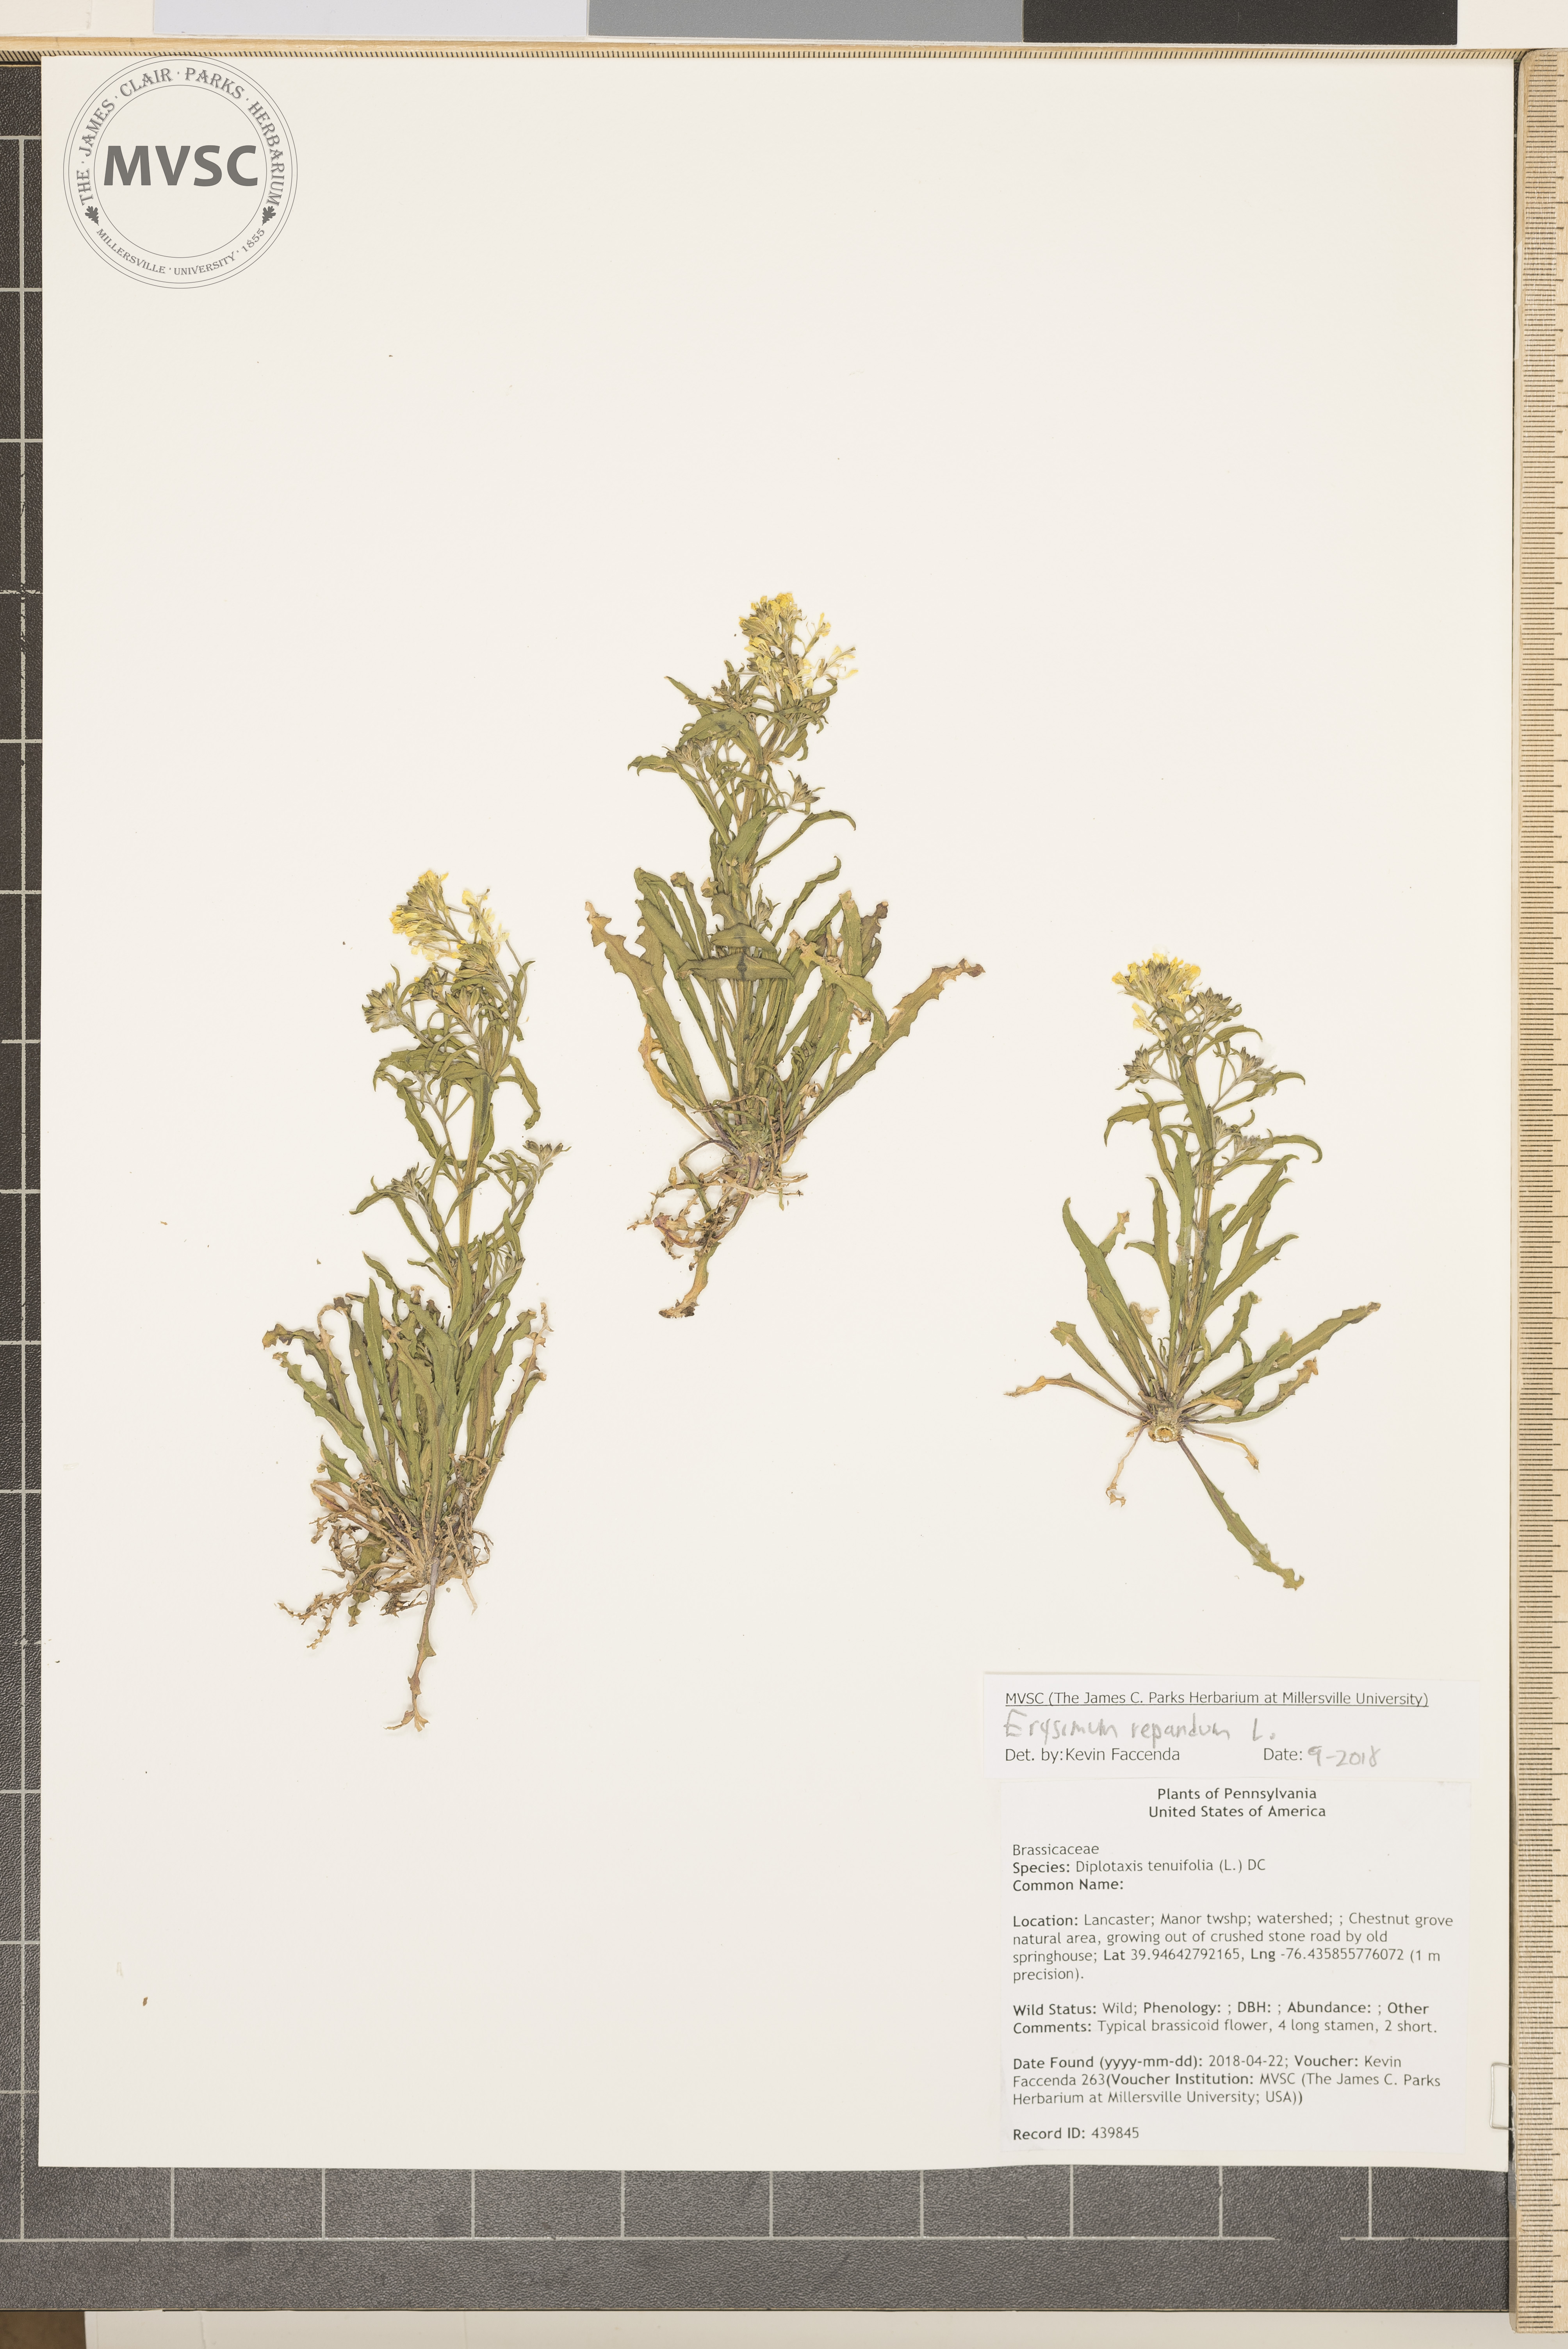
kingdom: Plantae
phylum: Tracheophyta
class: Magnoliopsida
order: Brassicales
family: Brassicaceae
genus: Erysimum
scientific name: Erysimum repandum
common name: Spreading wallflower
